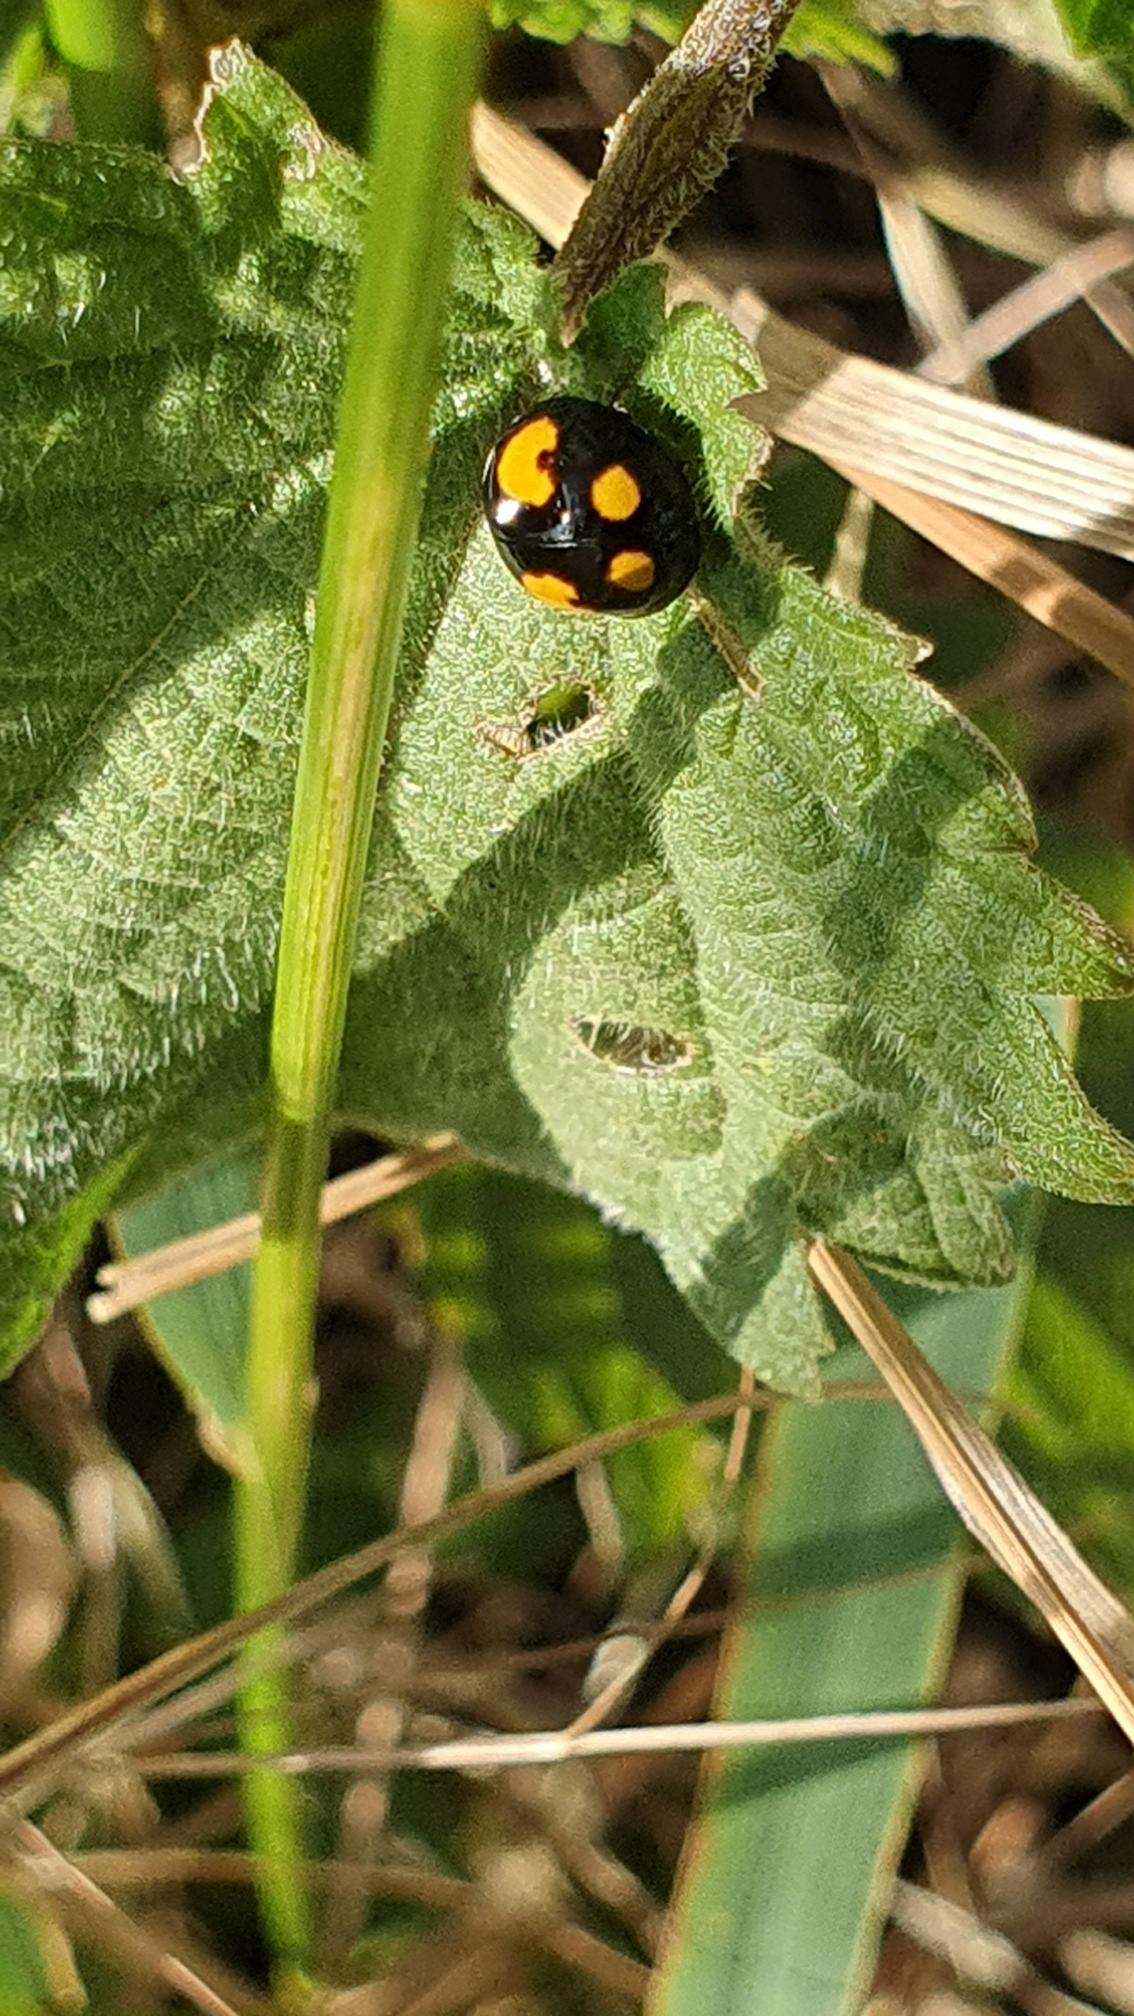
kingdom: Animalia
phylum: Arthropoda
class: Insecta
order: Coleoptera
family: Coccinellidae
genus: Harmonia
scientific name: Harmonia axyridis
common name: Harlekinmariehøne
